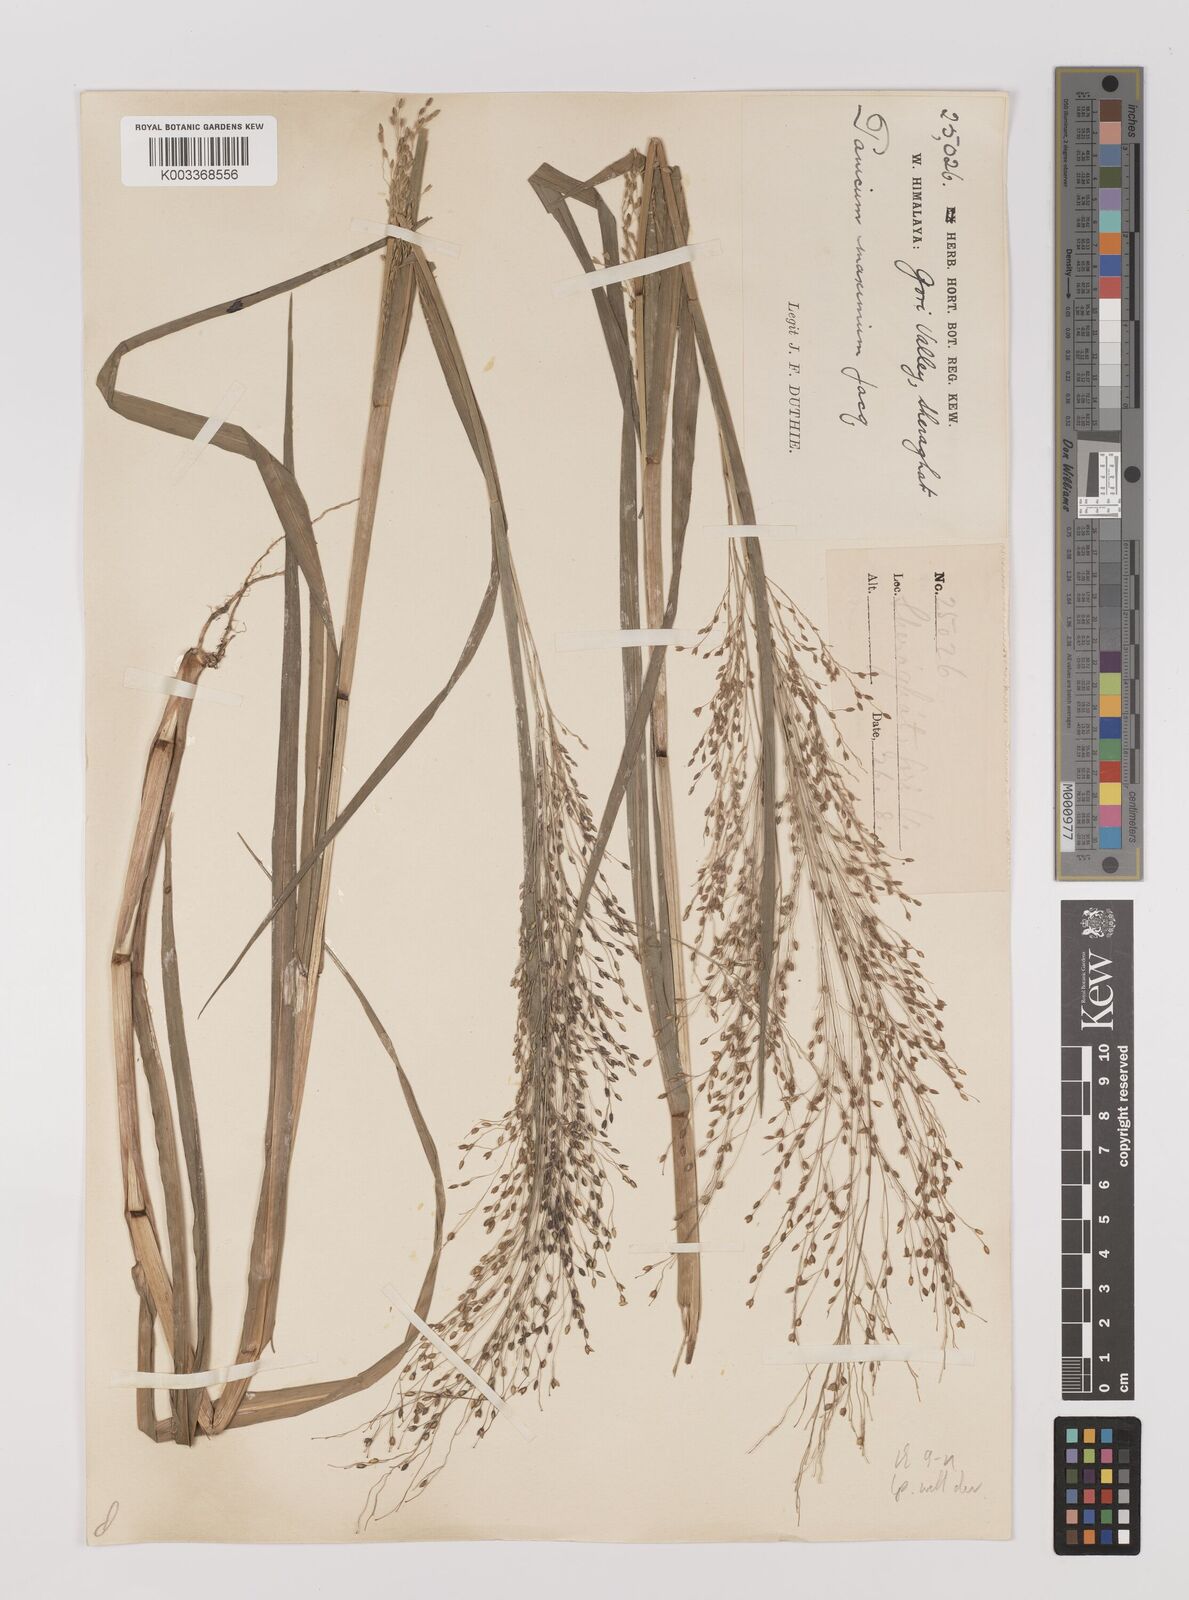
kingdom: Plantae
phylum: Tracheophyta
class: Liliopsida
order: Poales
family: Poaceae
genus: Panicum
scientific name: Panicum sumatrense
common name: Little millet
